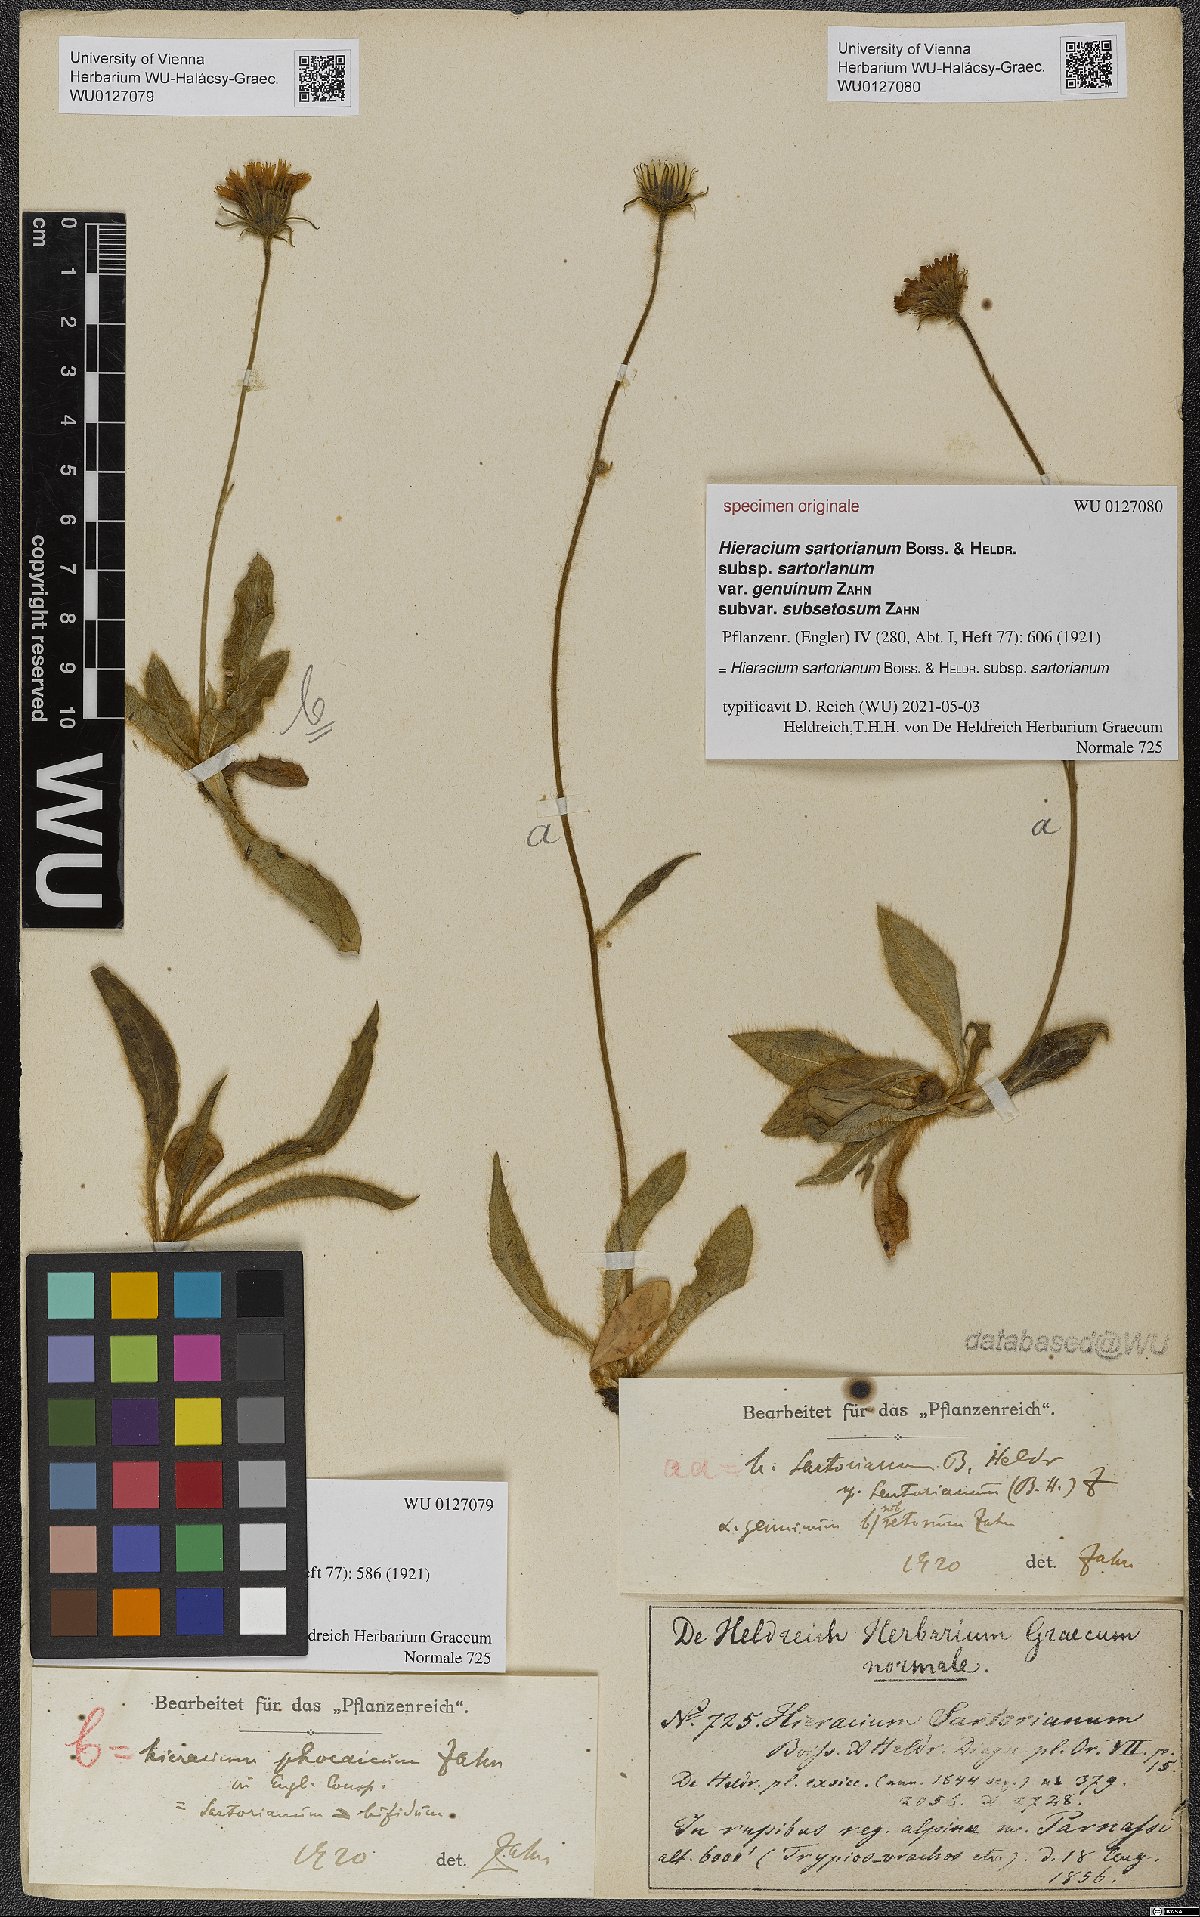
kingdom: Plantae
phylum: Tracheophyta
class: Magnoliopsida
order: Asterales
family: Asteraceae
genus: Hieracium
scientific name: Hieracium sartorianum
